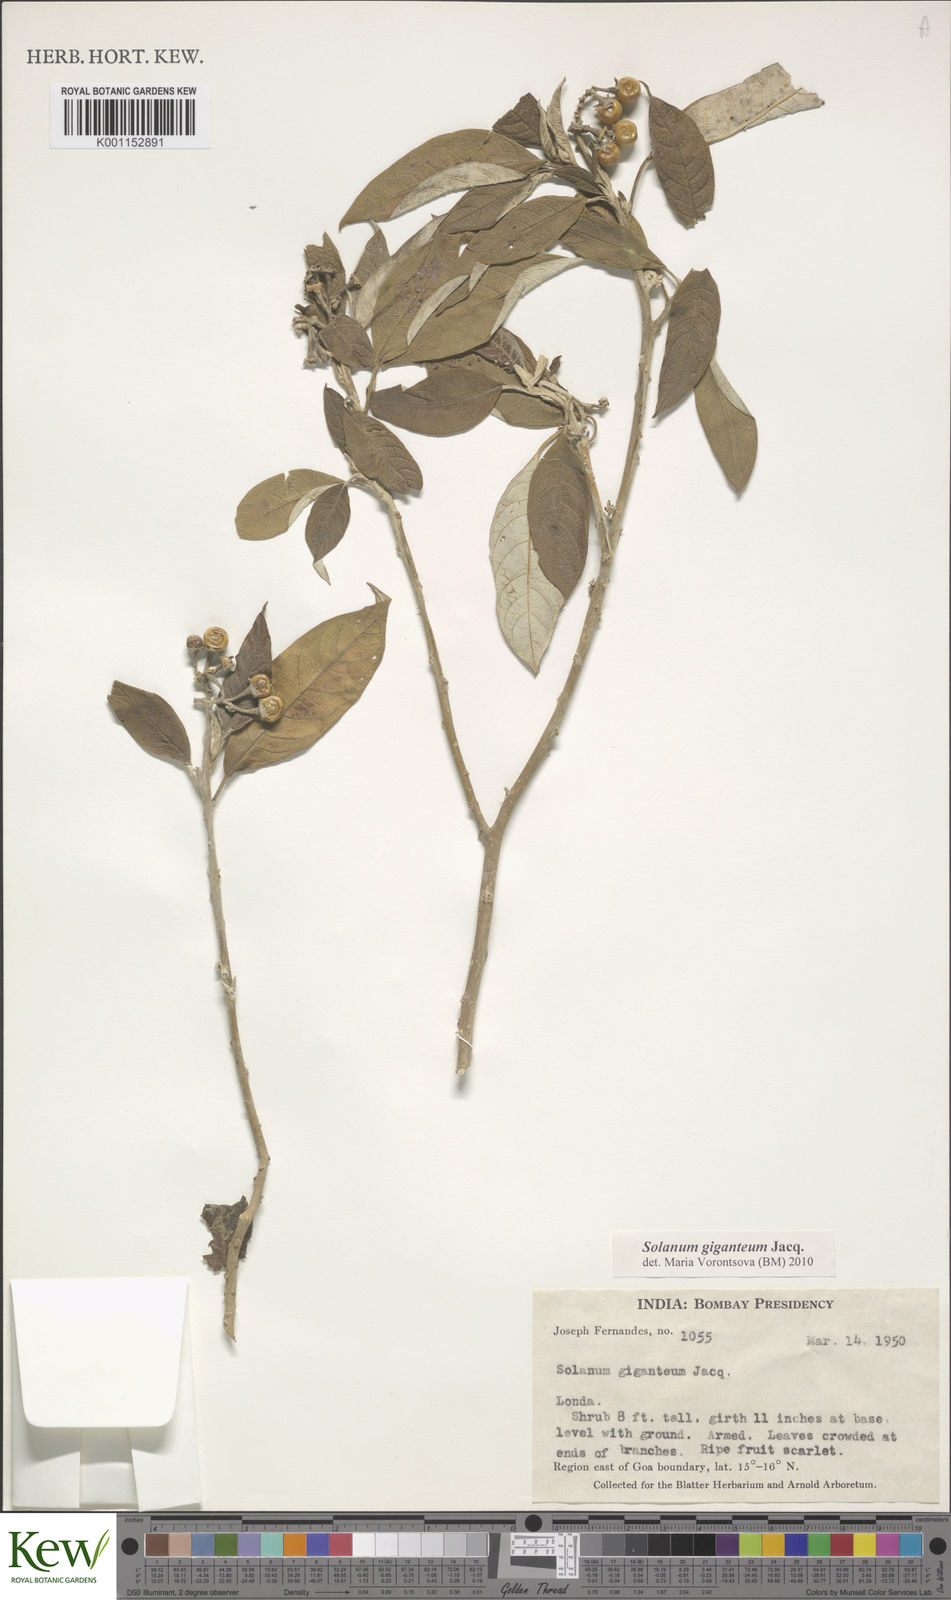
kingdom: Plantae
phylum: Tracheophyta
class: Magnoliopsida
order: Solanales
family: Solanaceae
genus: Solanum
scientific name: Solanum giganteum
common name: Healing-leaf-tree
